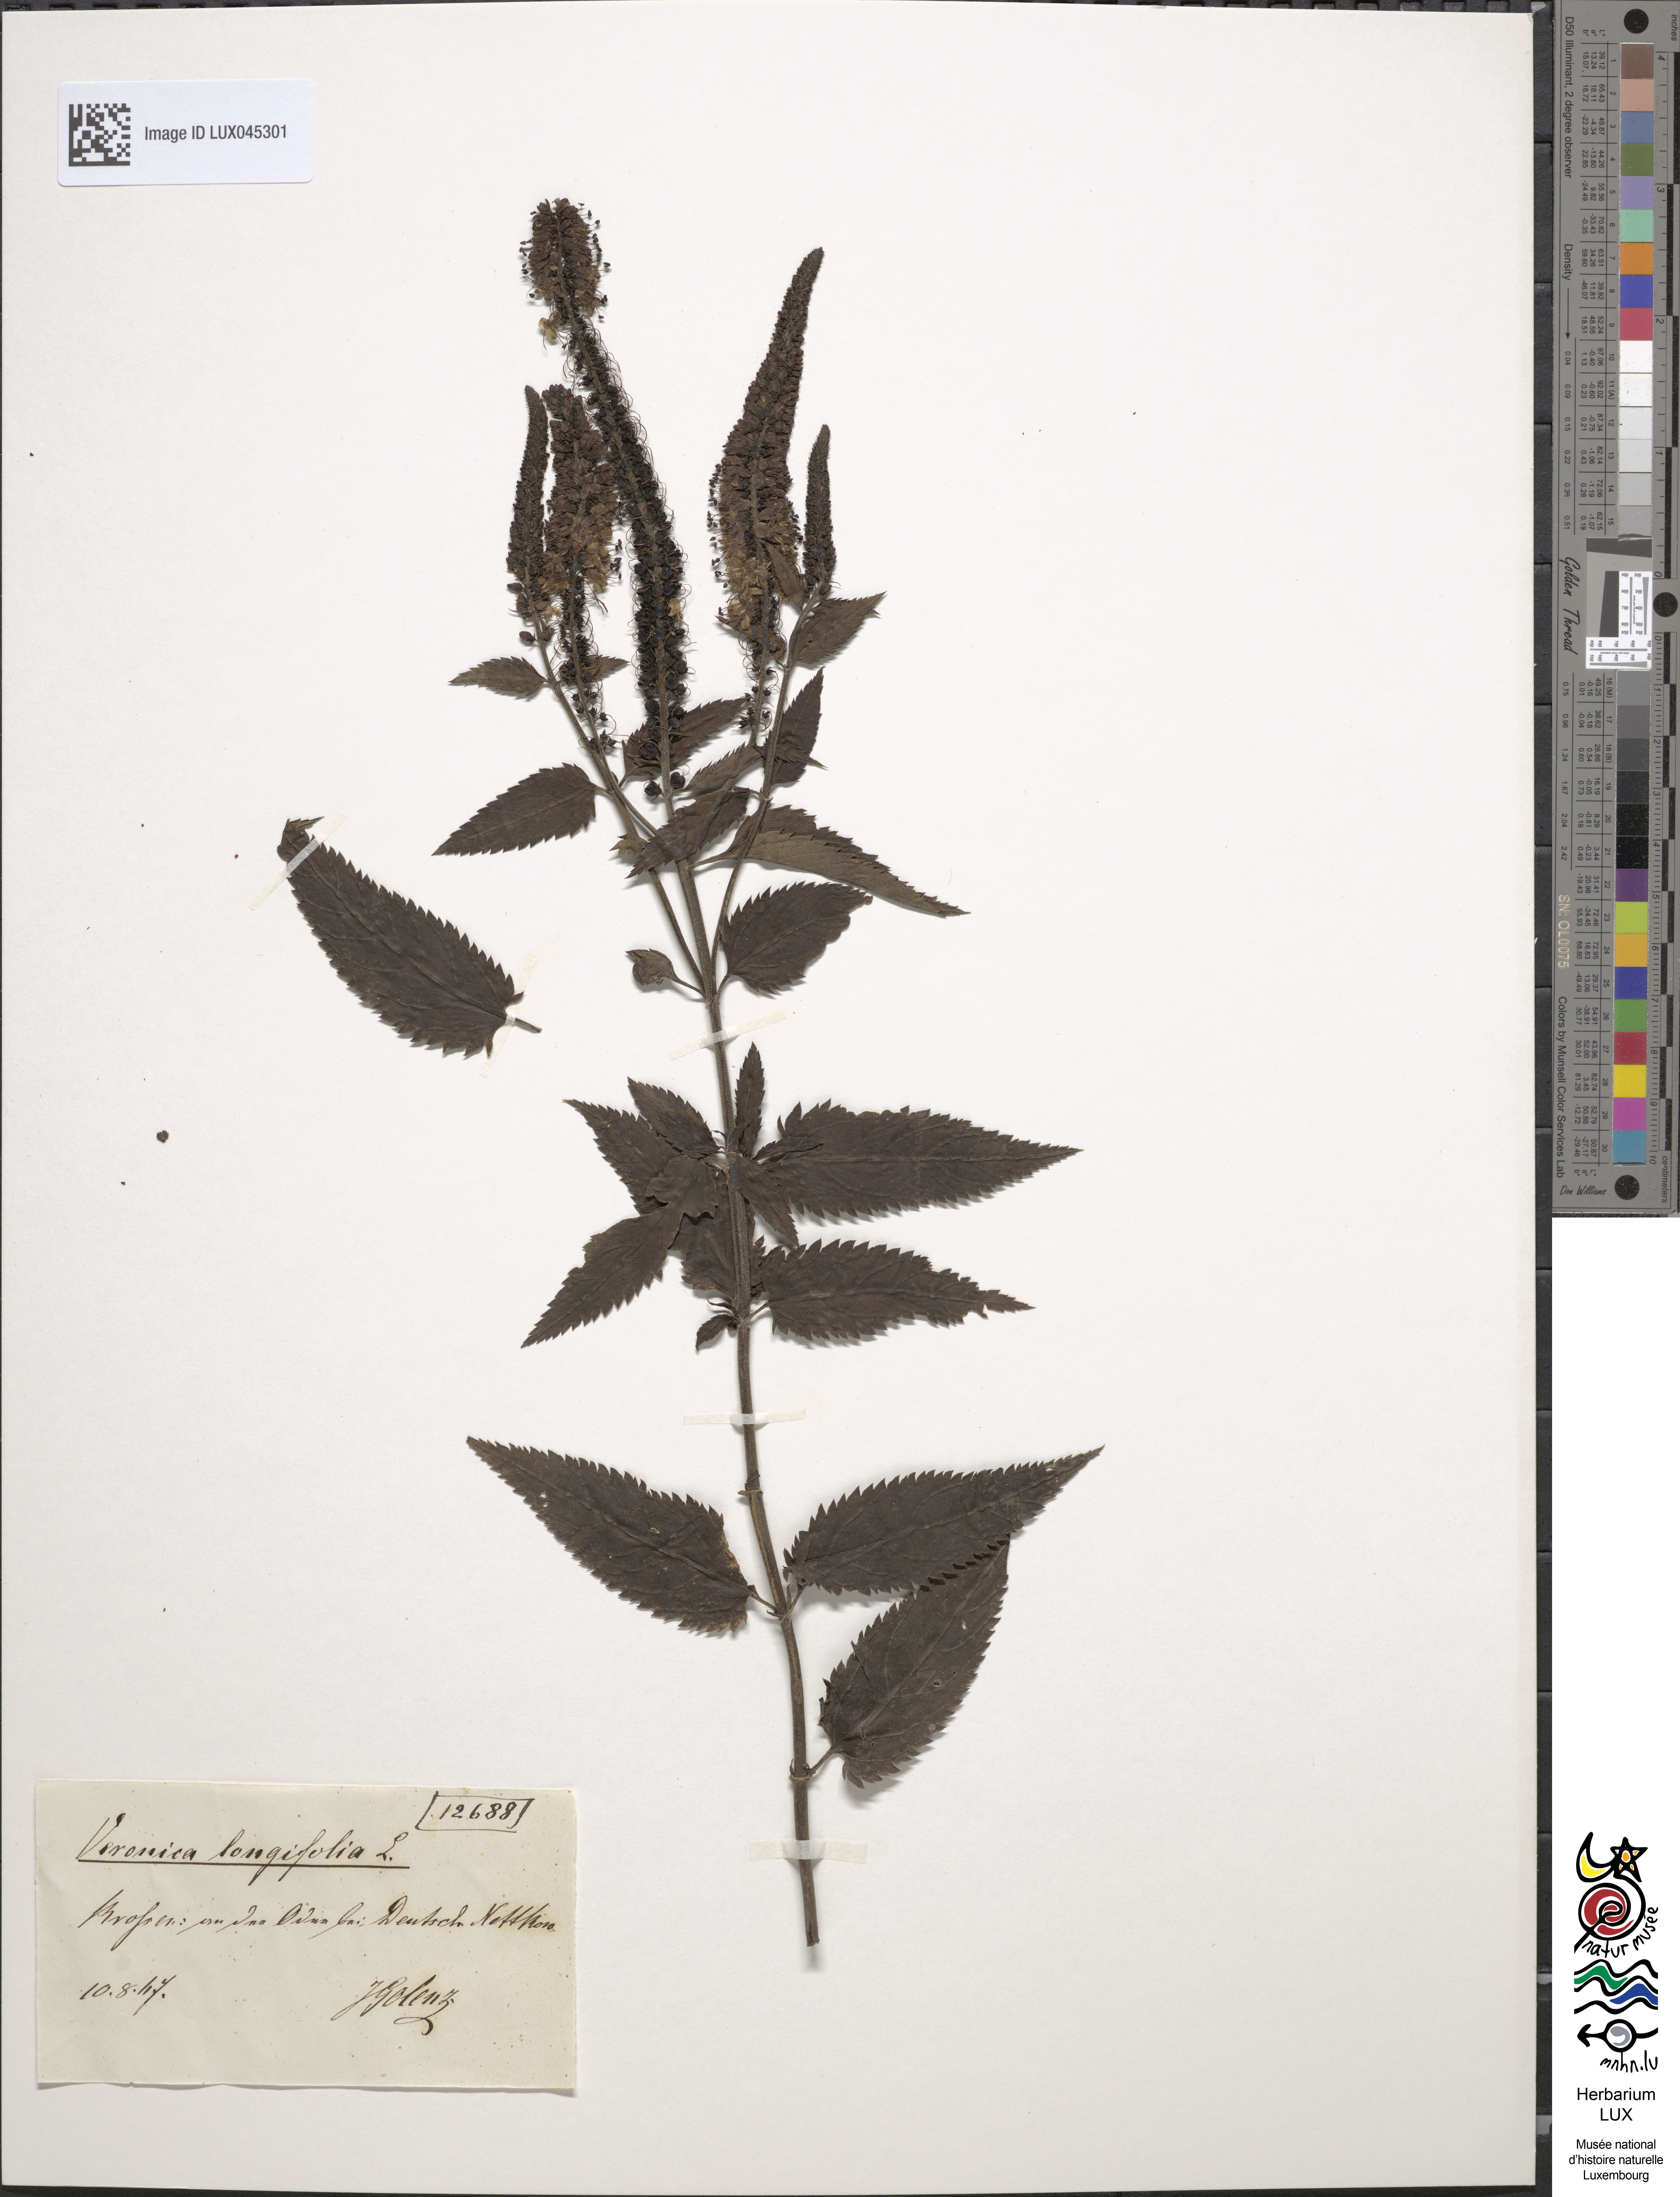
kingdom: Plantae
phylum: Tracheophyta
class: Magnoliopsida
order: Lamiales
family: Plantaginaceae
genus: Veronica
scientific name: Veronica hederifolia
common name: Ivy-leaved speedwell
